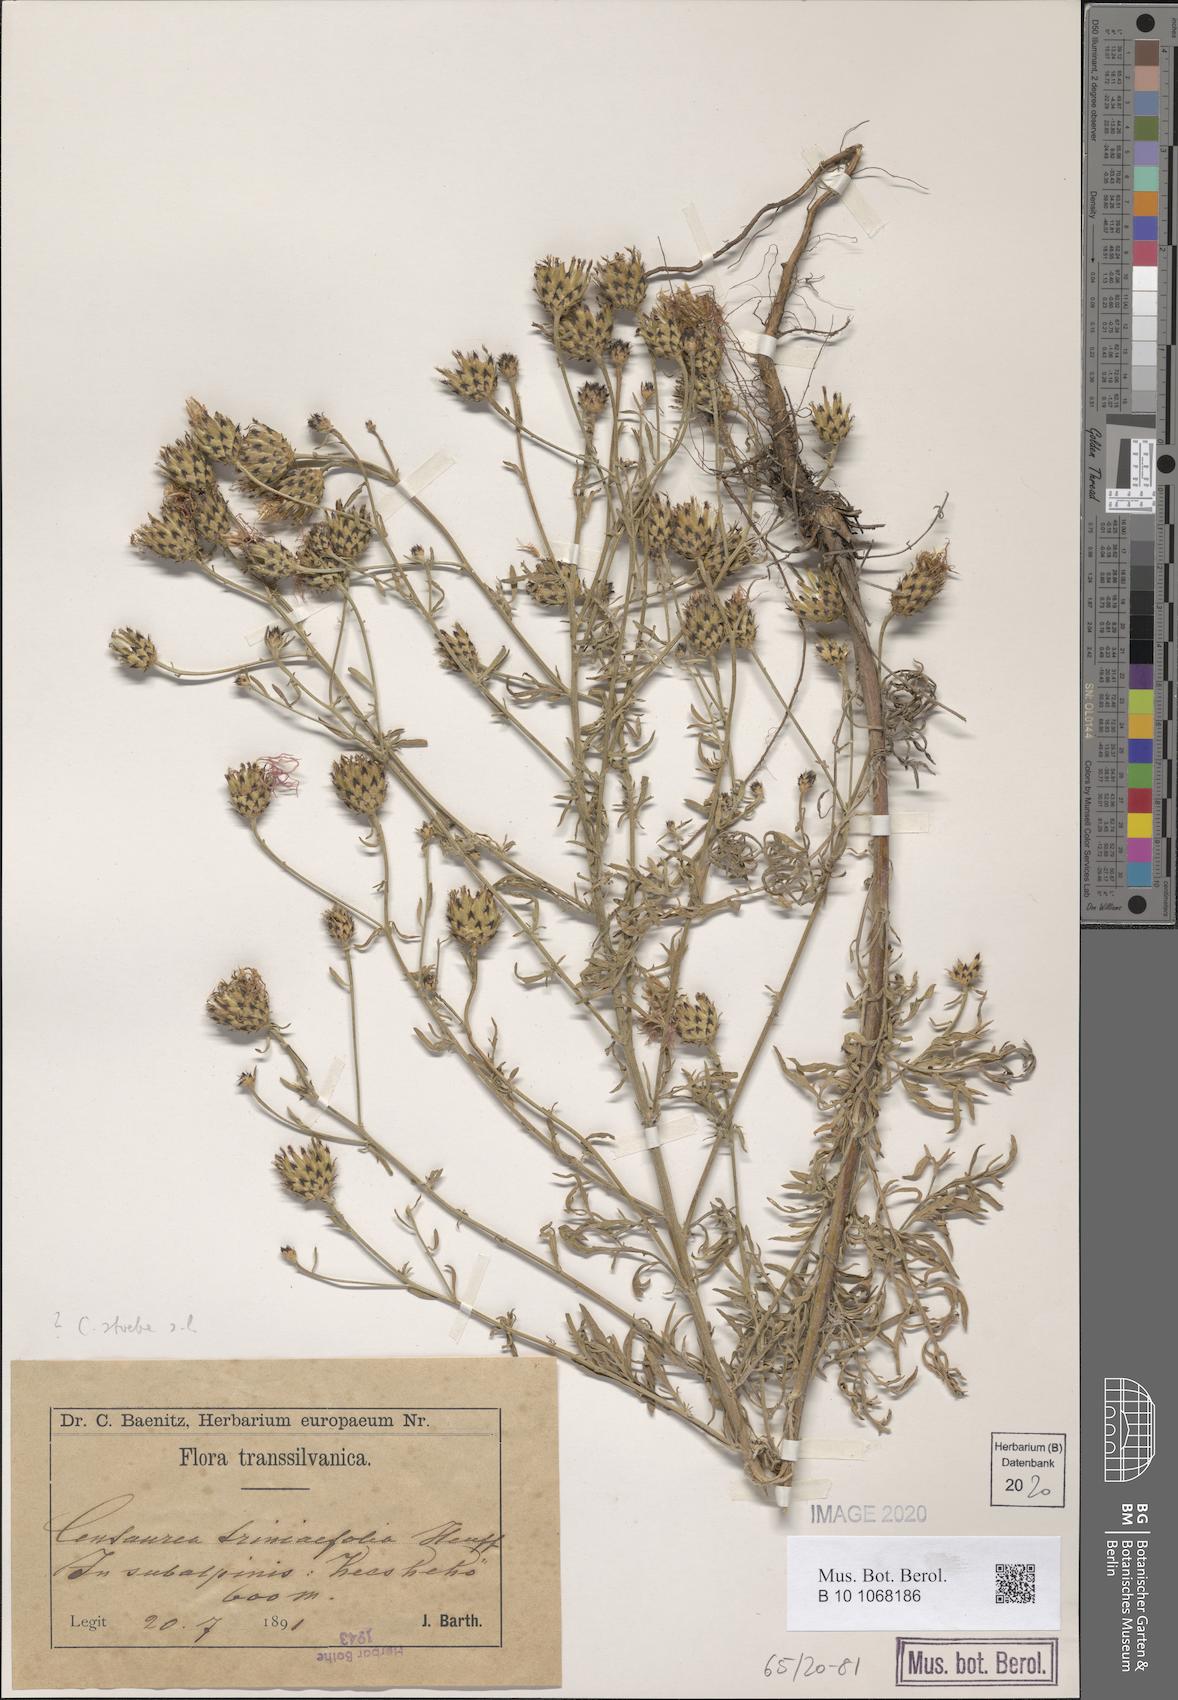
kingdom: Plantae
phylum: Tracheophyta
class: Magnoliopsida
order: Asterales
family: Asteraceae
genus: Centaurea
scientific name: Centaurea stoebe
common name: Spotted knapweed
